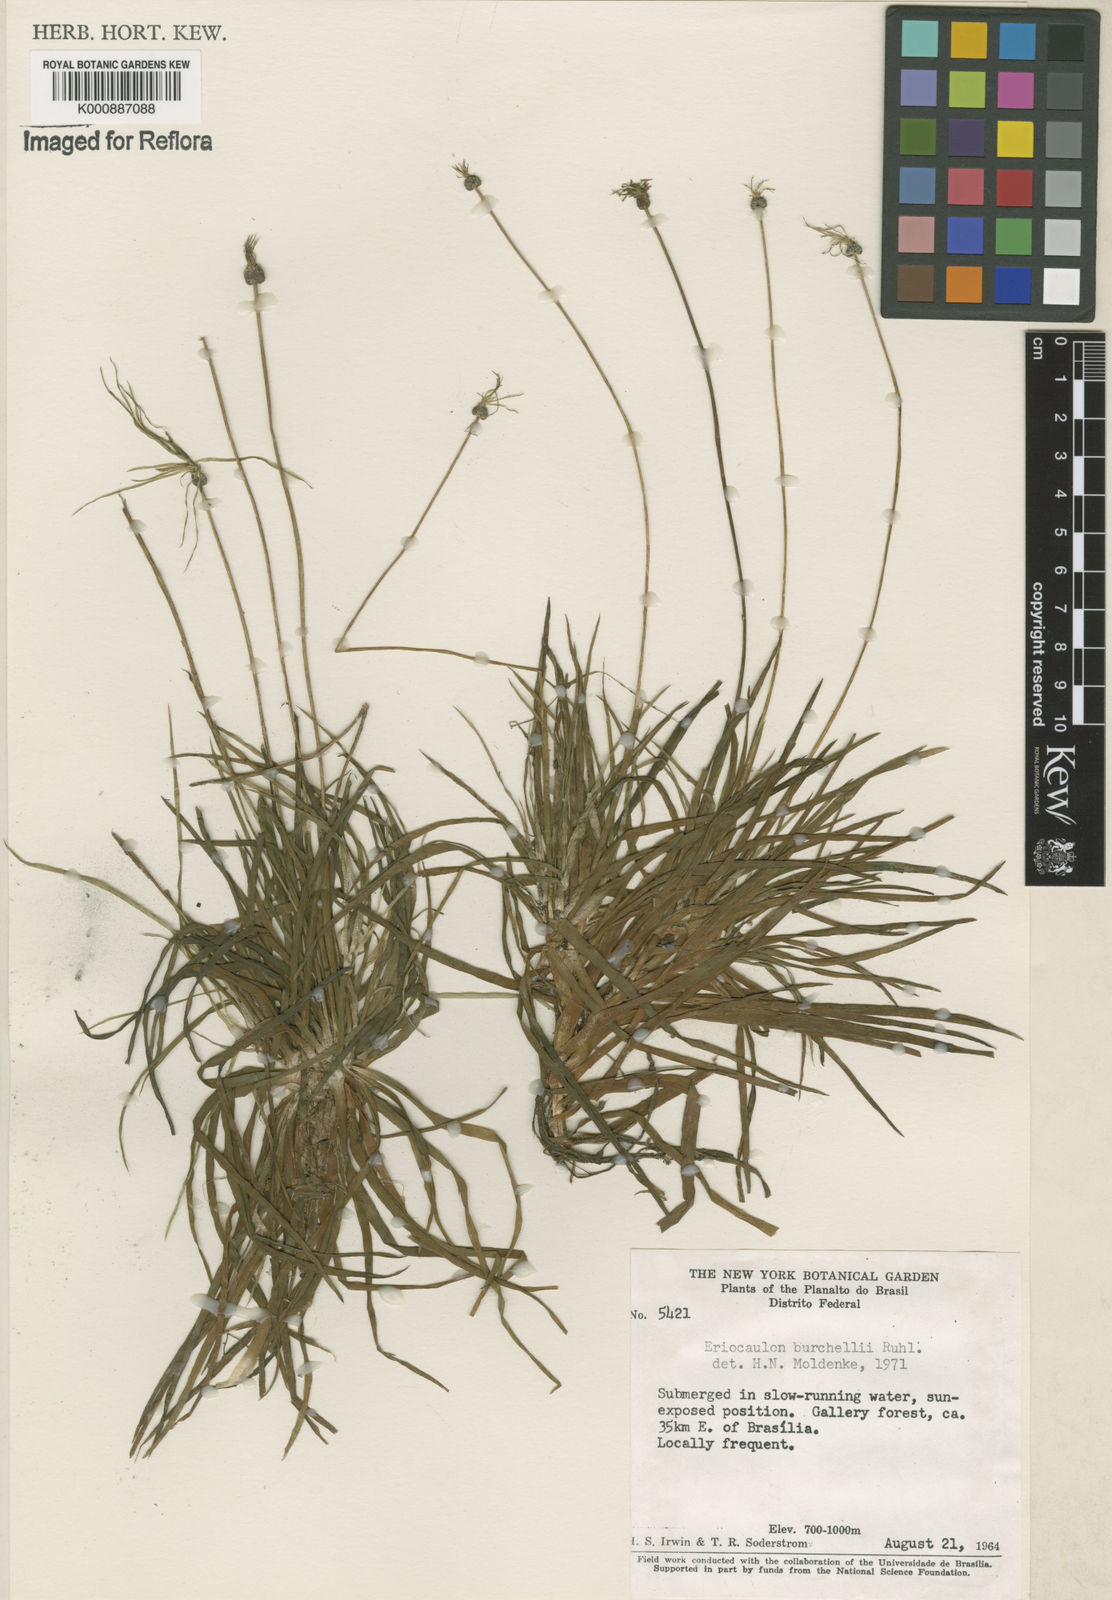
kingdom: Plantae
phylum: Tracheophyta
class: Liliopsida
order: Poales
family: Eriocaulaceae
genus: Eriocaulon
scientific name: Eriocaulon modestum
